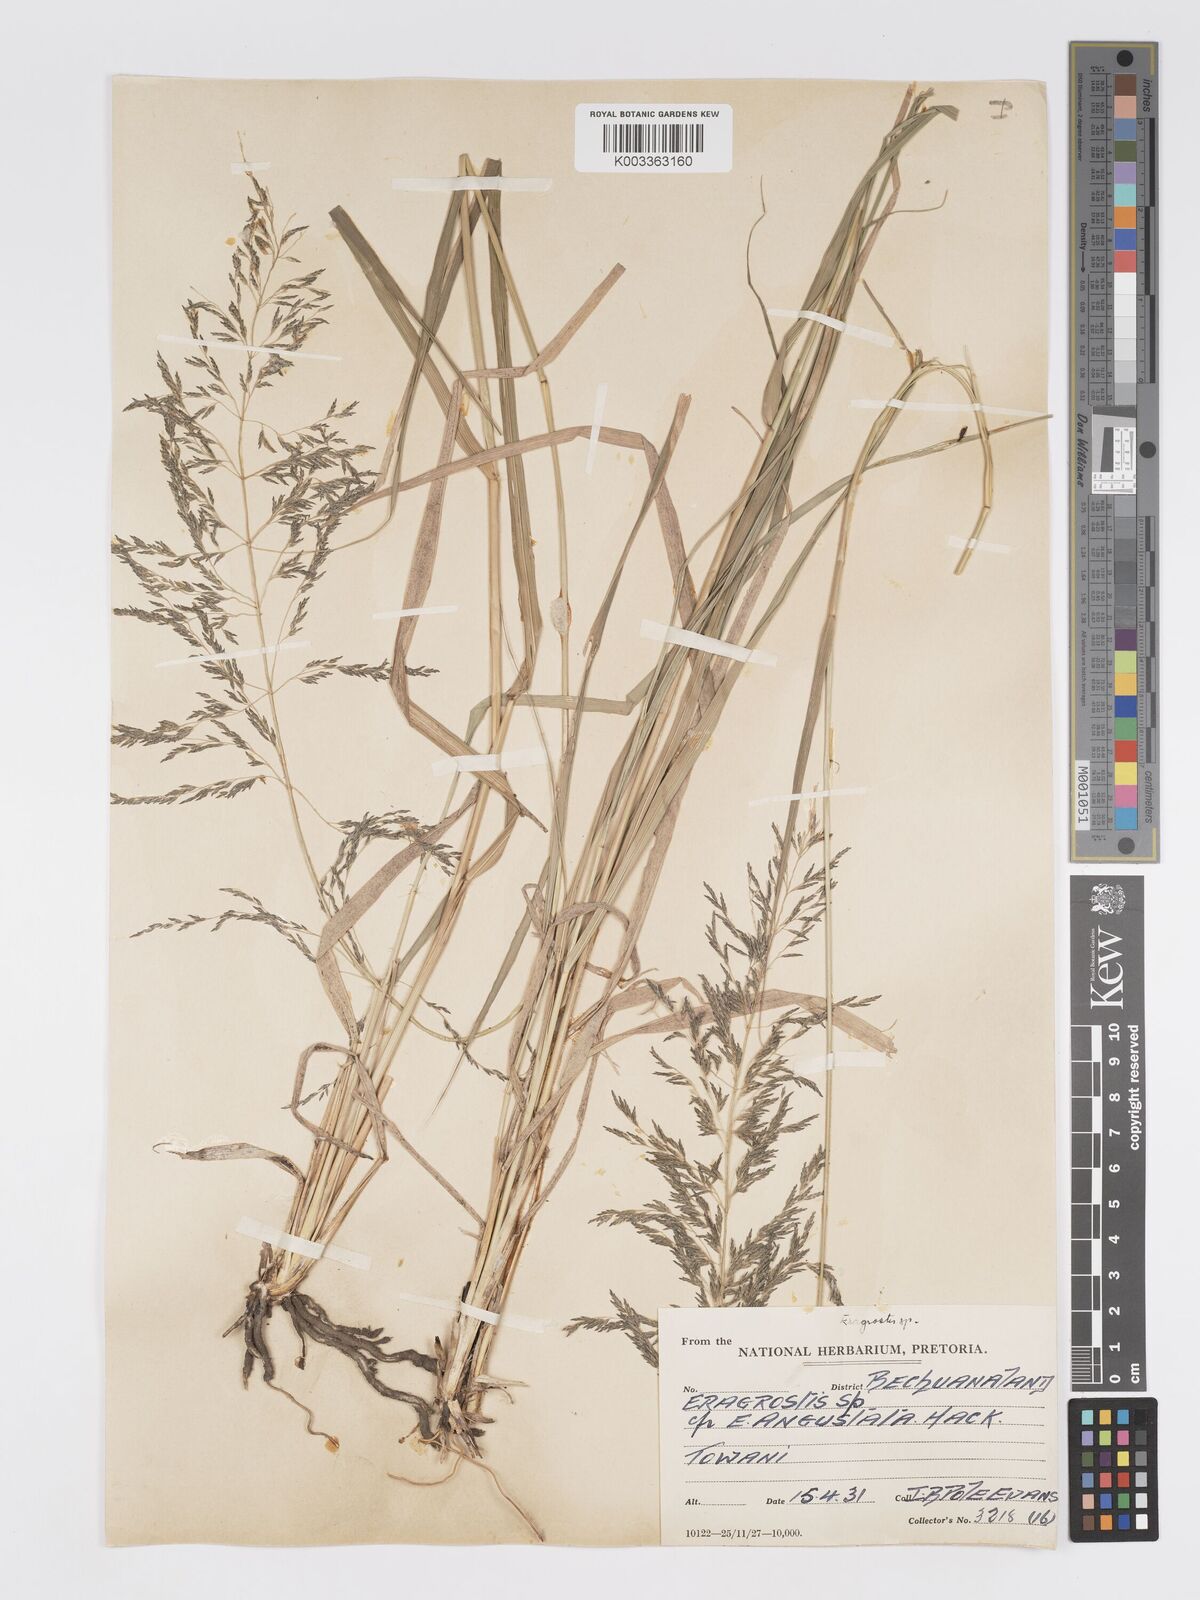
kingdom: Plantae
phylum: Tracheophyta
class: Liliopsida
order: Poales
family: Poaceae
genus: Eragrostis
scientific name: Eragrostis cylindriflora
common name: Cylinderflower lovegrass
